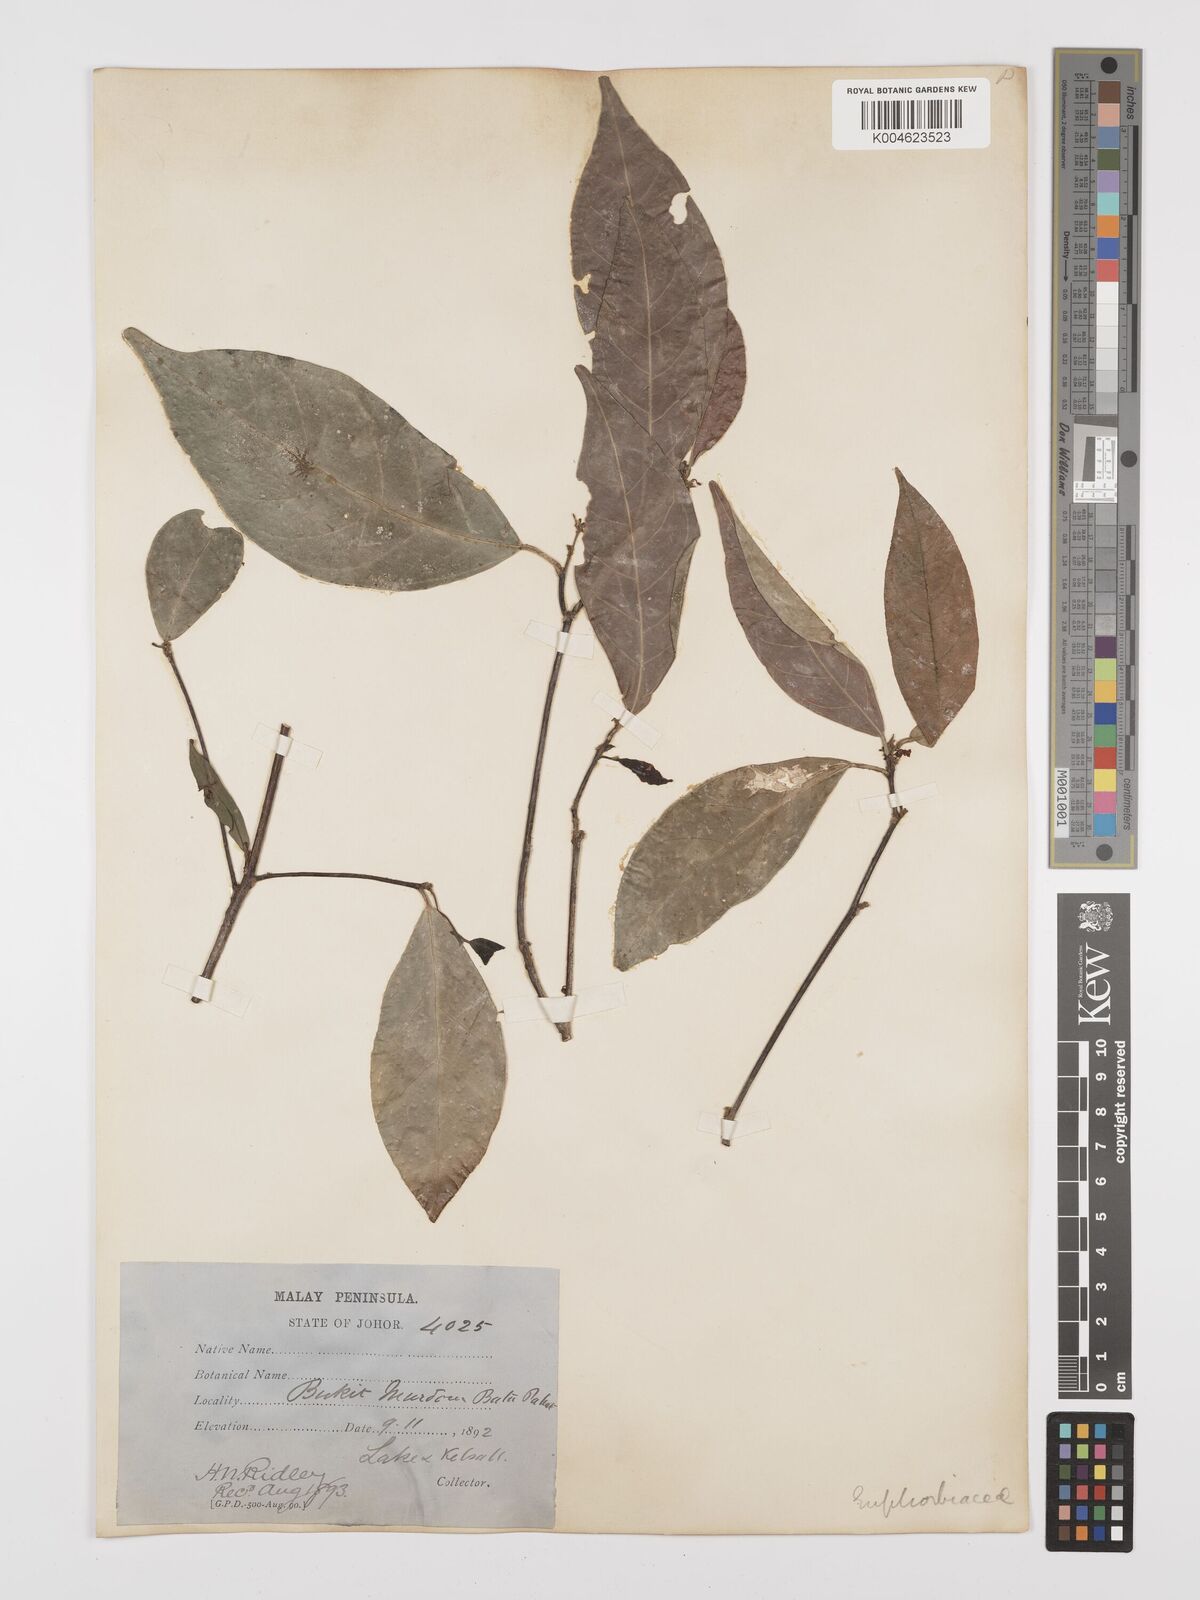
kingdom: Plantae
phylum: Tracheophyta
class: Magnoliopsida
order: Malpighiales
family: Euphorbiaceae
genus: Trigonostemon
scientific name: Trigonostemon laevigatus
